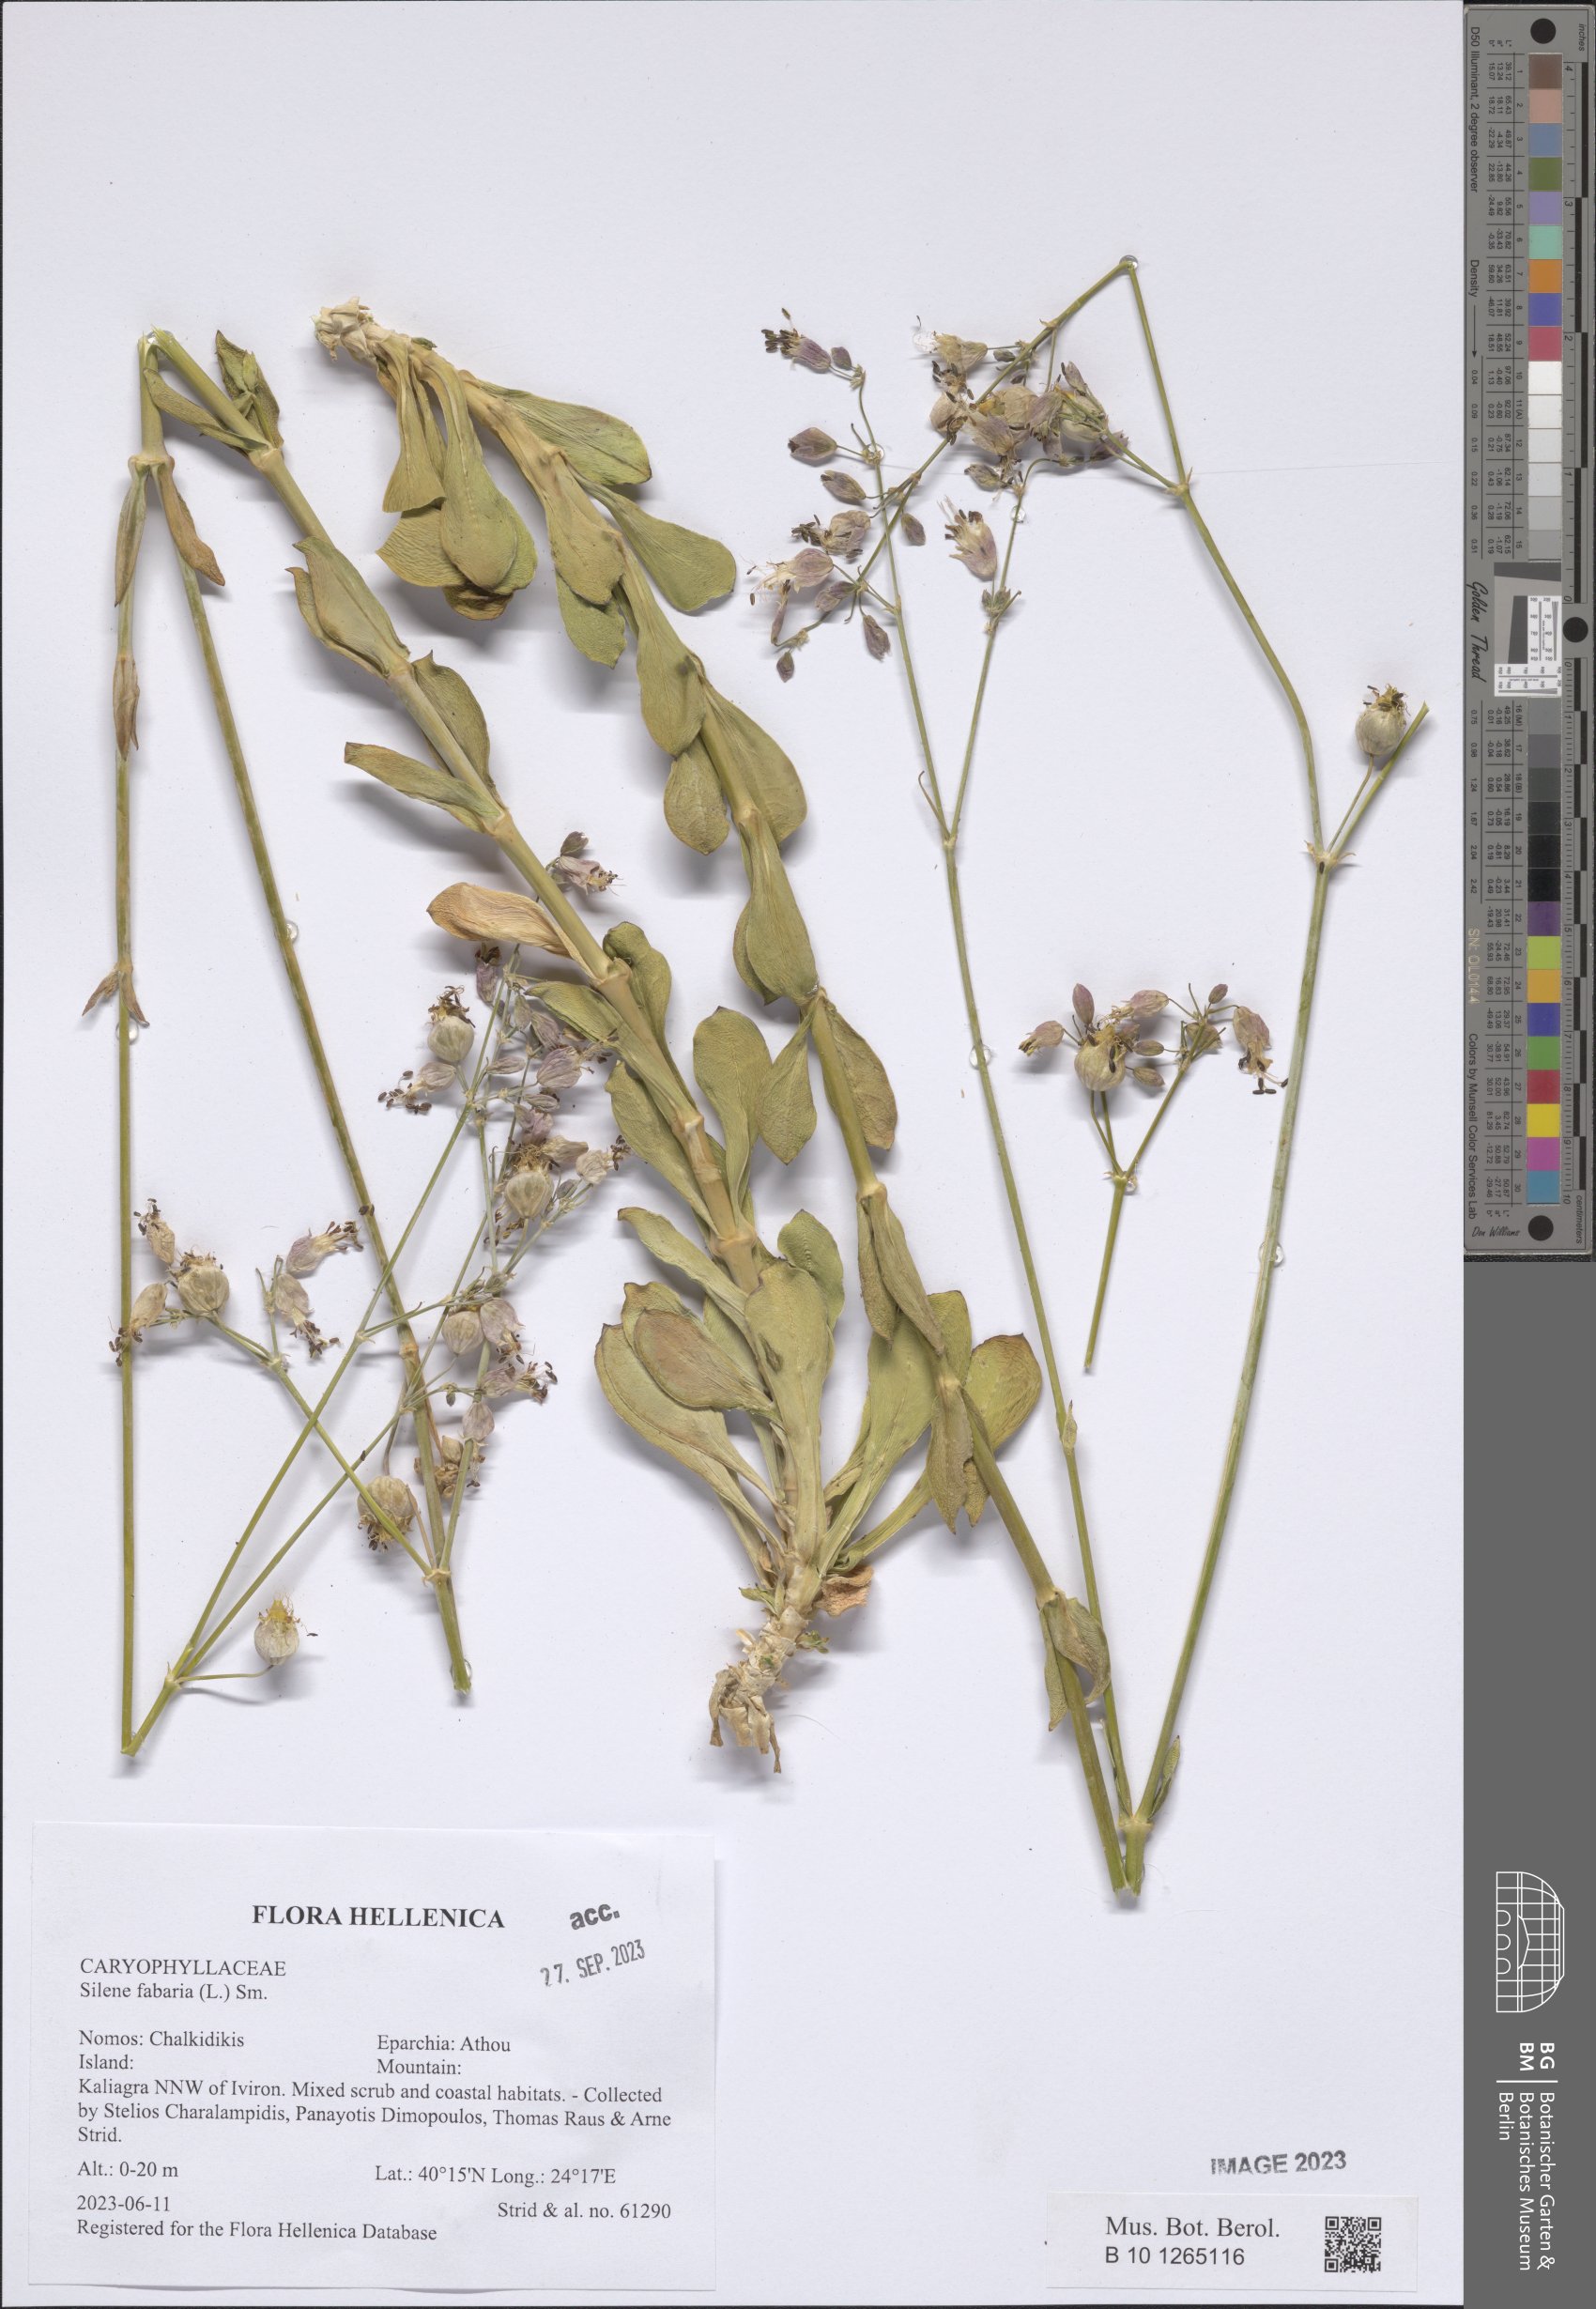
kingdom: Plantae
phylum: Tracheophyta
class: Magnoliopsida
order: Caryophyllales
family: Caryophyllaceae
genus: Silene
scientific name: Silene fabaria
